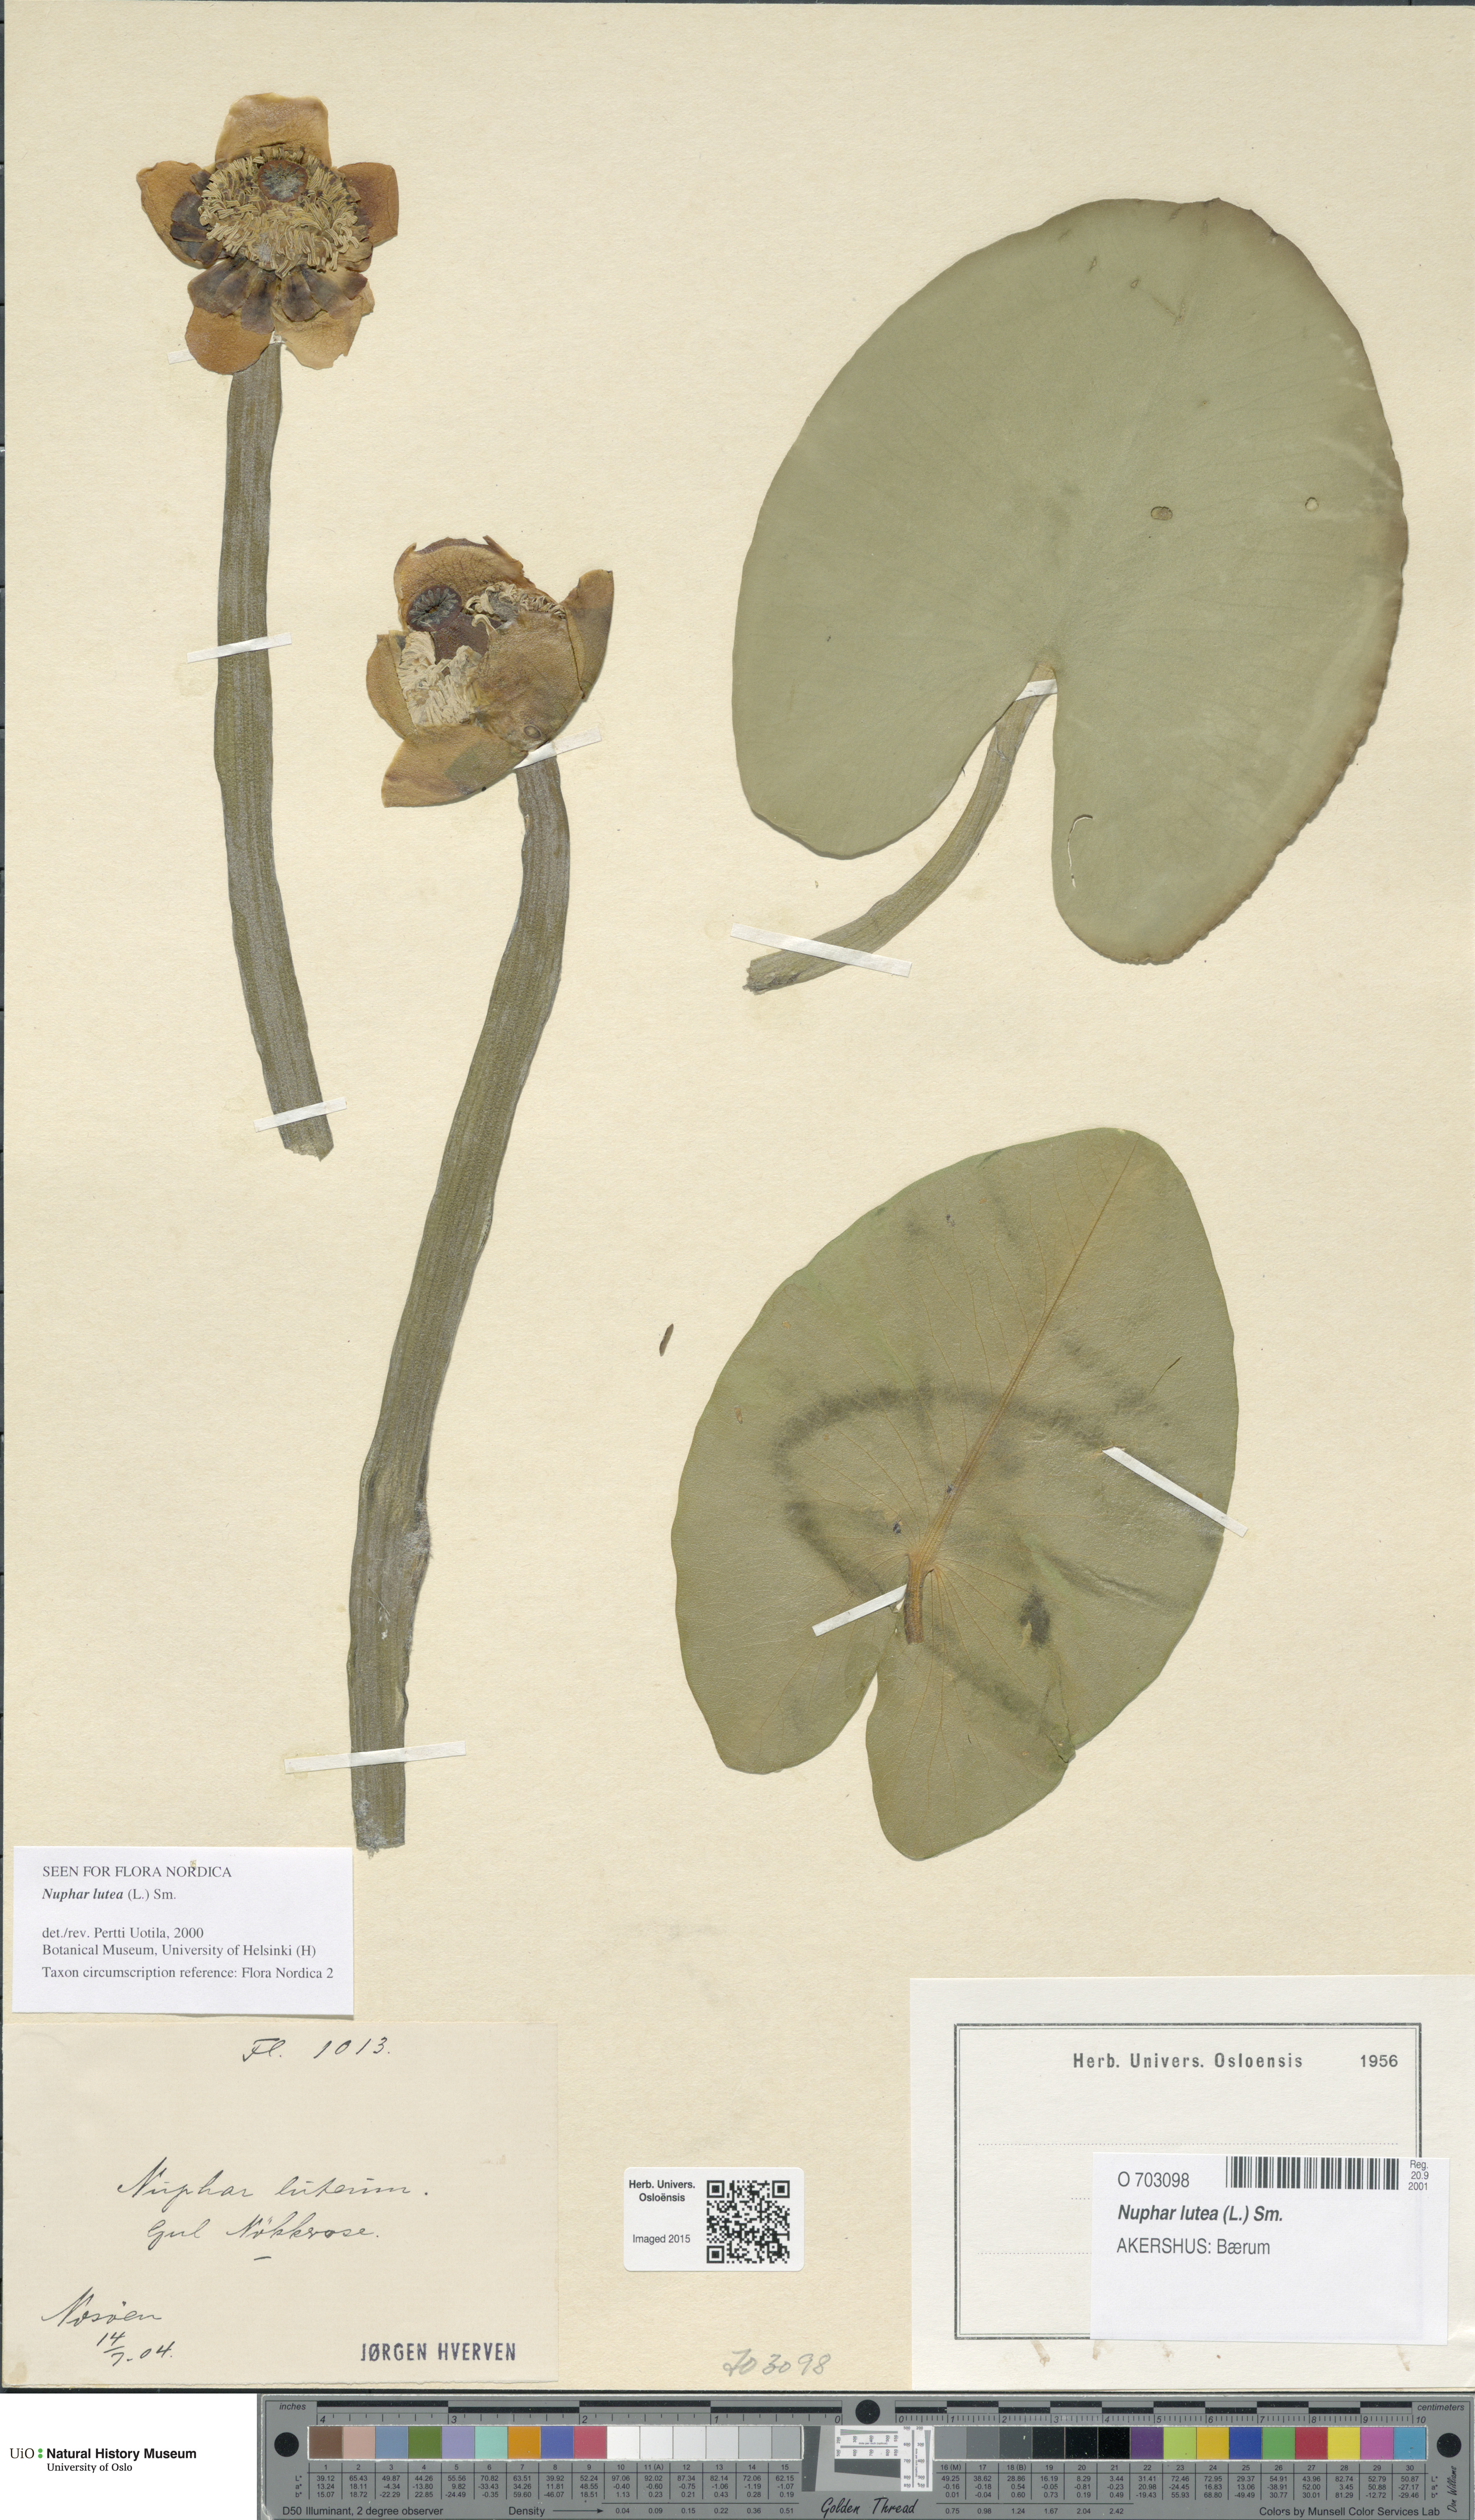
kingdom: Plantae
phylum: Tracheophyta
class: Magnoliopsida
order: Nymphaeales
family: Nymphaeaceae
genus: Nuphar
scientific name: Nuphar lutea
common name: Yellow water-lily
